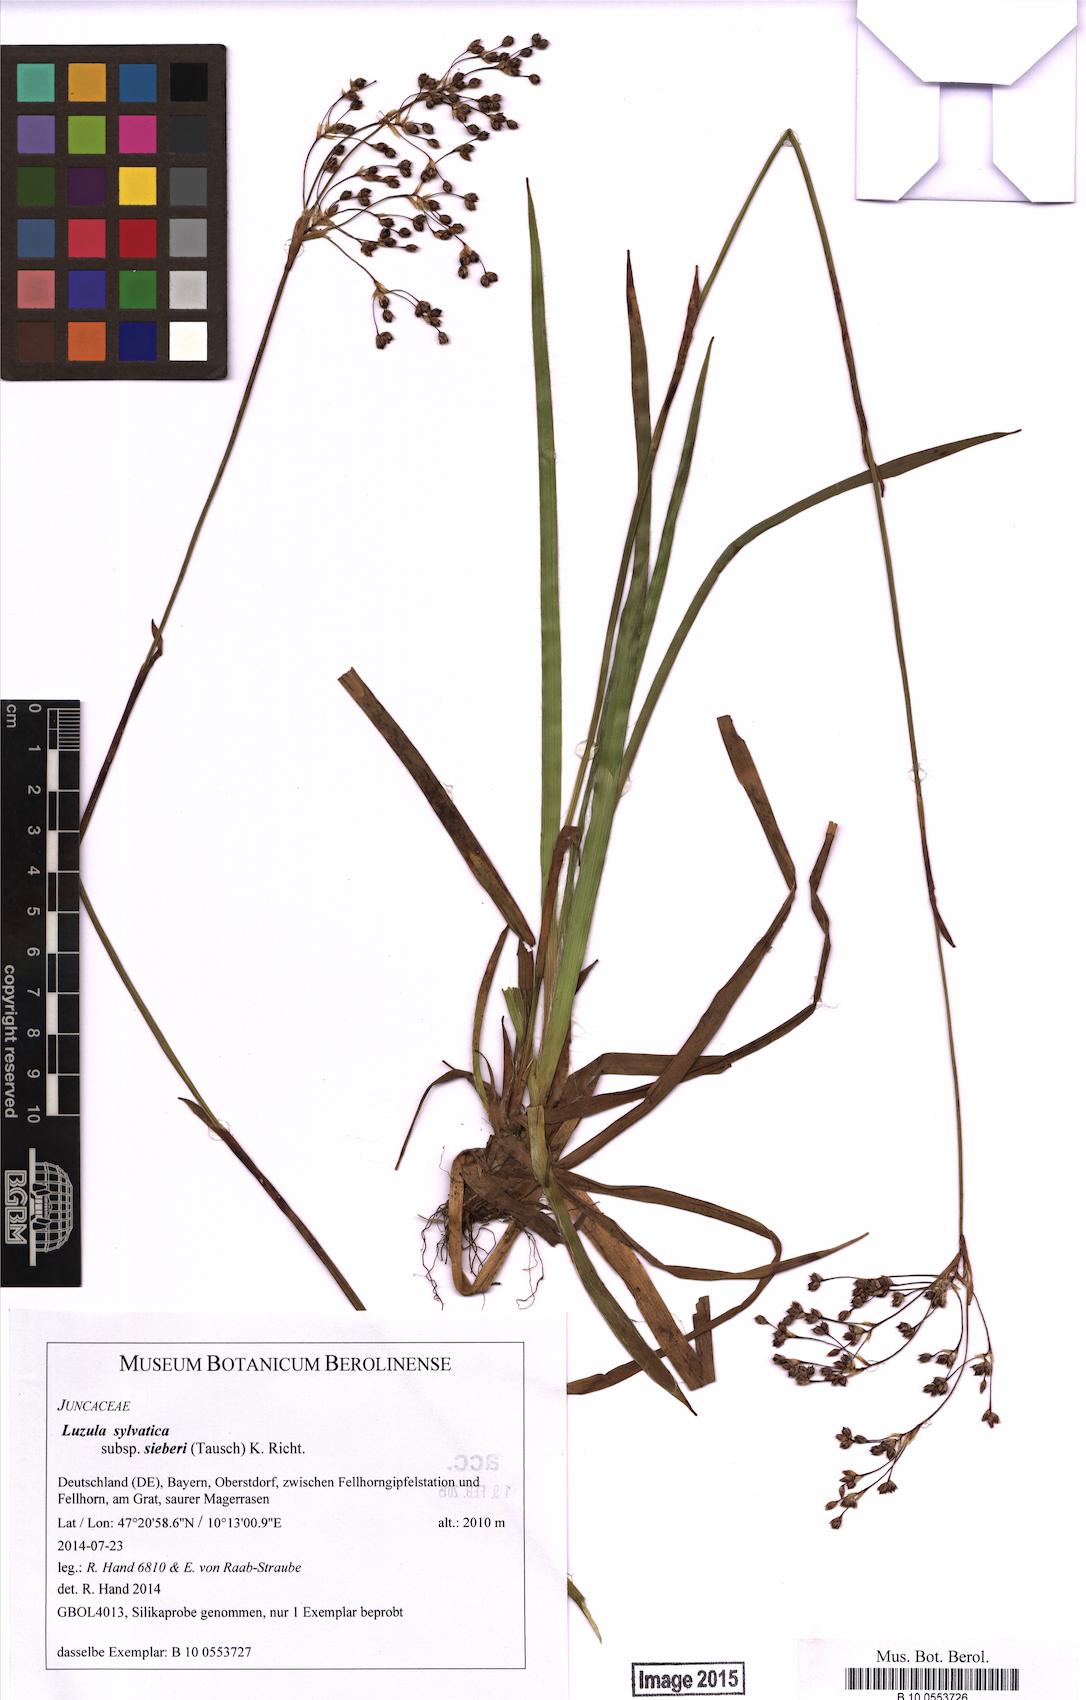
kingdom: Plantae
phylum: Tracheophyta
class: Liliopsida
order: Poales
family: Juncaceae
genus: Luzula
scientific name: Luzula sylvatica
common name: Great wood-rush
